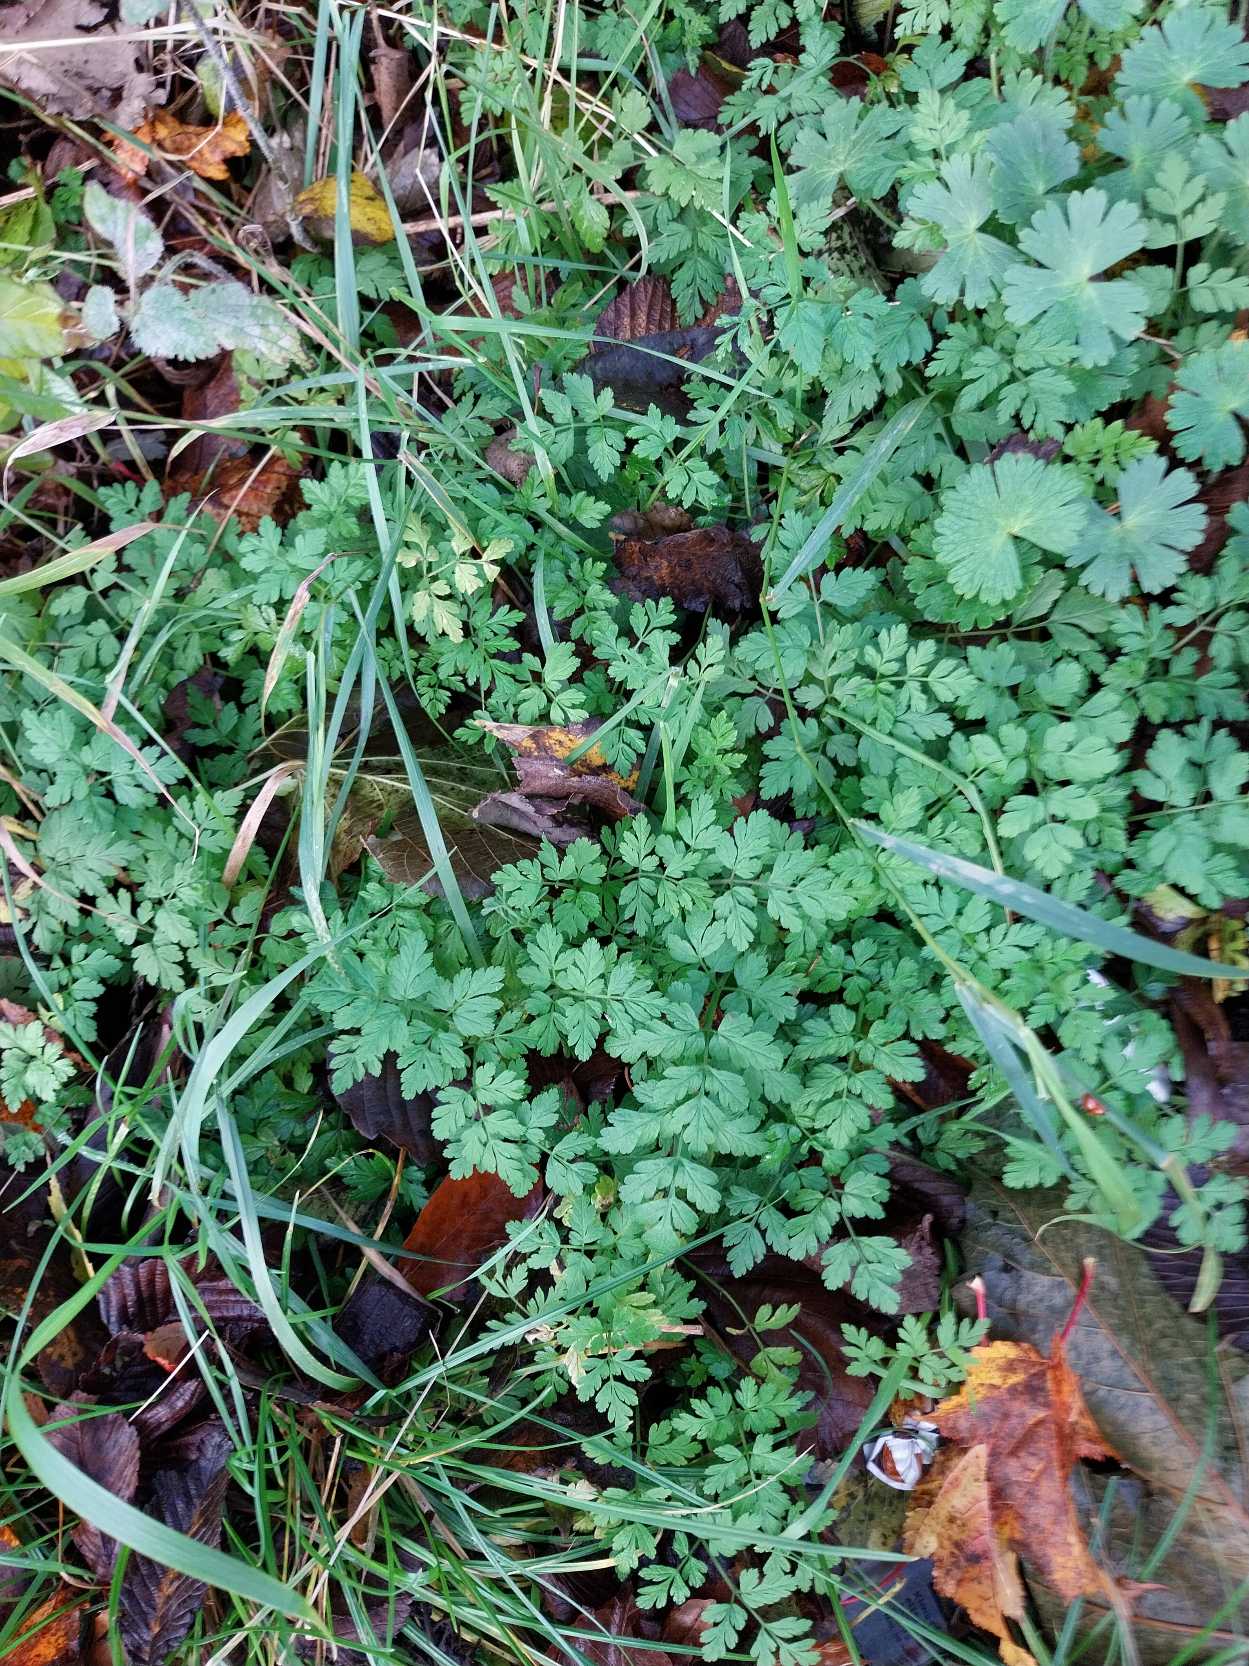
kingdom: Plantae
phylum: Tracheophyta
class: Magnoliopsida
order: Apiales
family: Apiaceae
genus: Chaerophyllum
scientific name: Chaerophyllum temulum
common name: Almindelig hulsvøb
